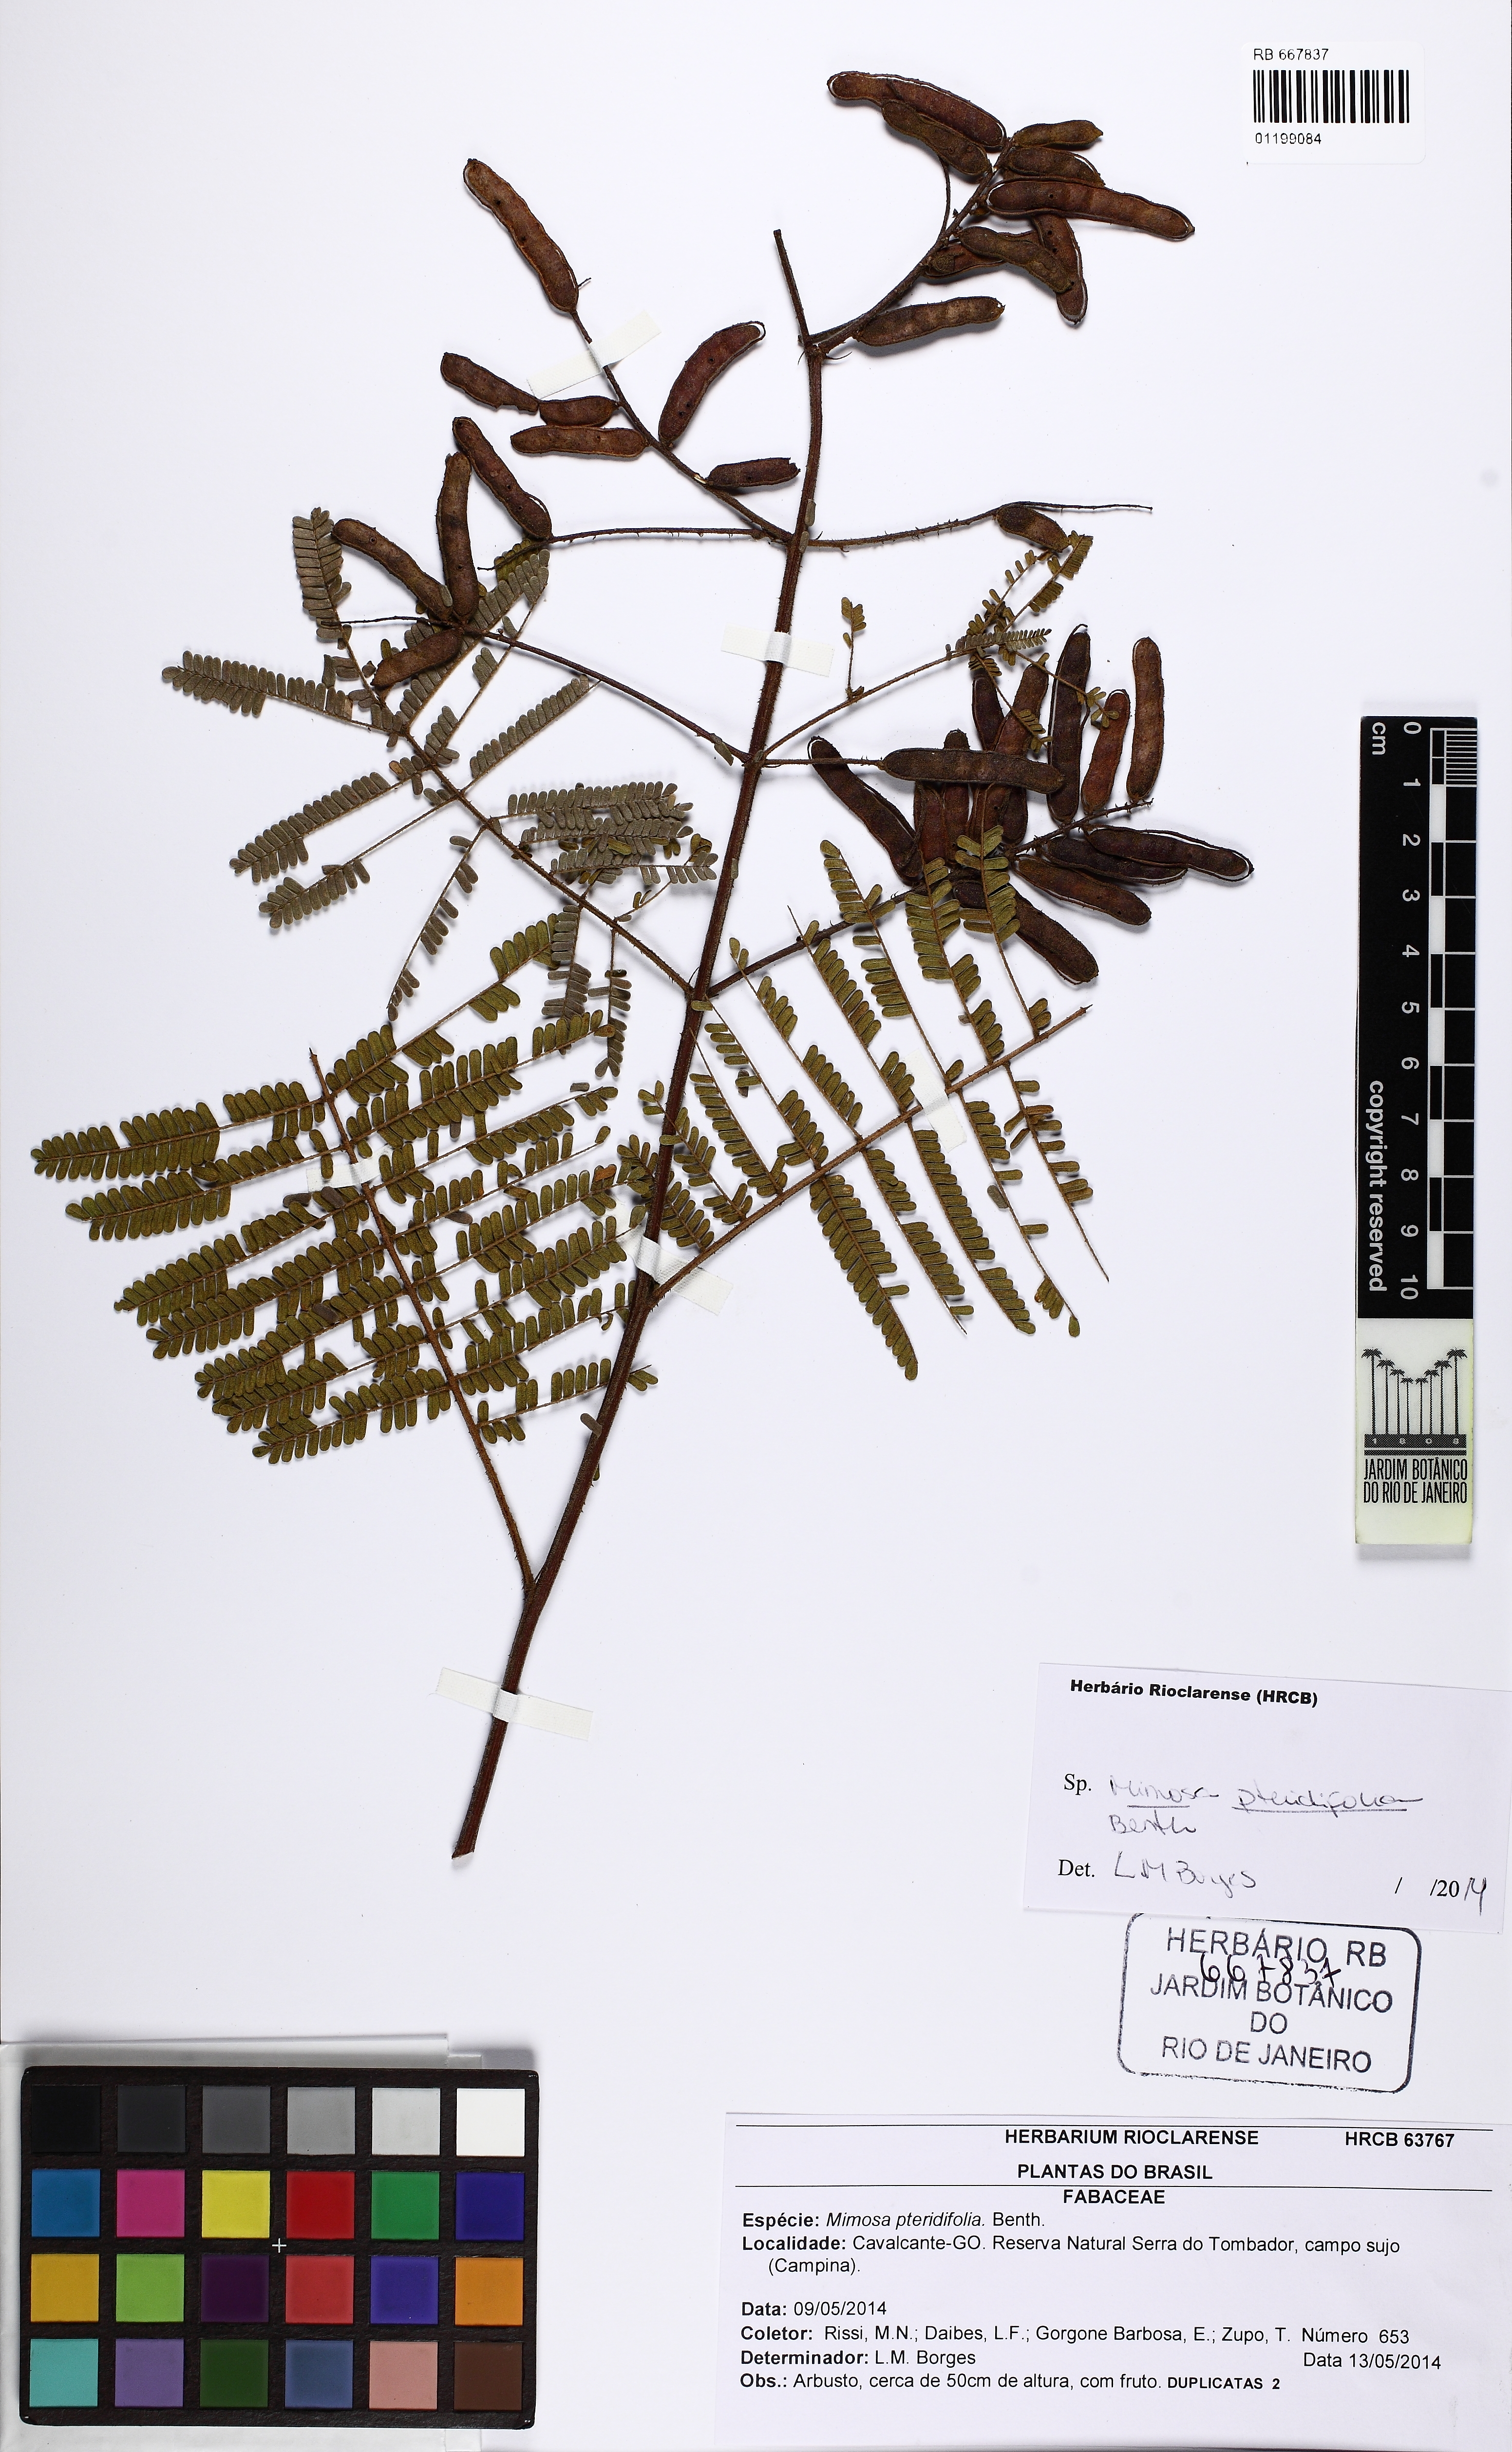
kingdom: Plantae
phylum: Tracheophyta
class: Magnoliopsida
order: Fabales
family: Fabaceae
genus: Mimosa
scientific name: Mimosa pteridifolia
